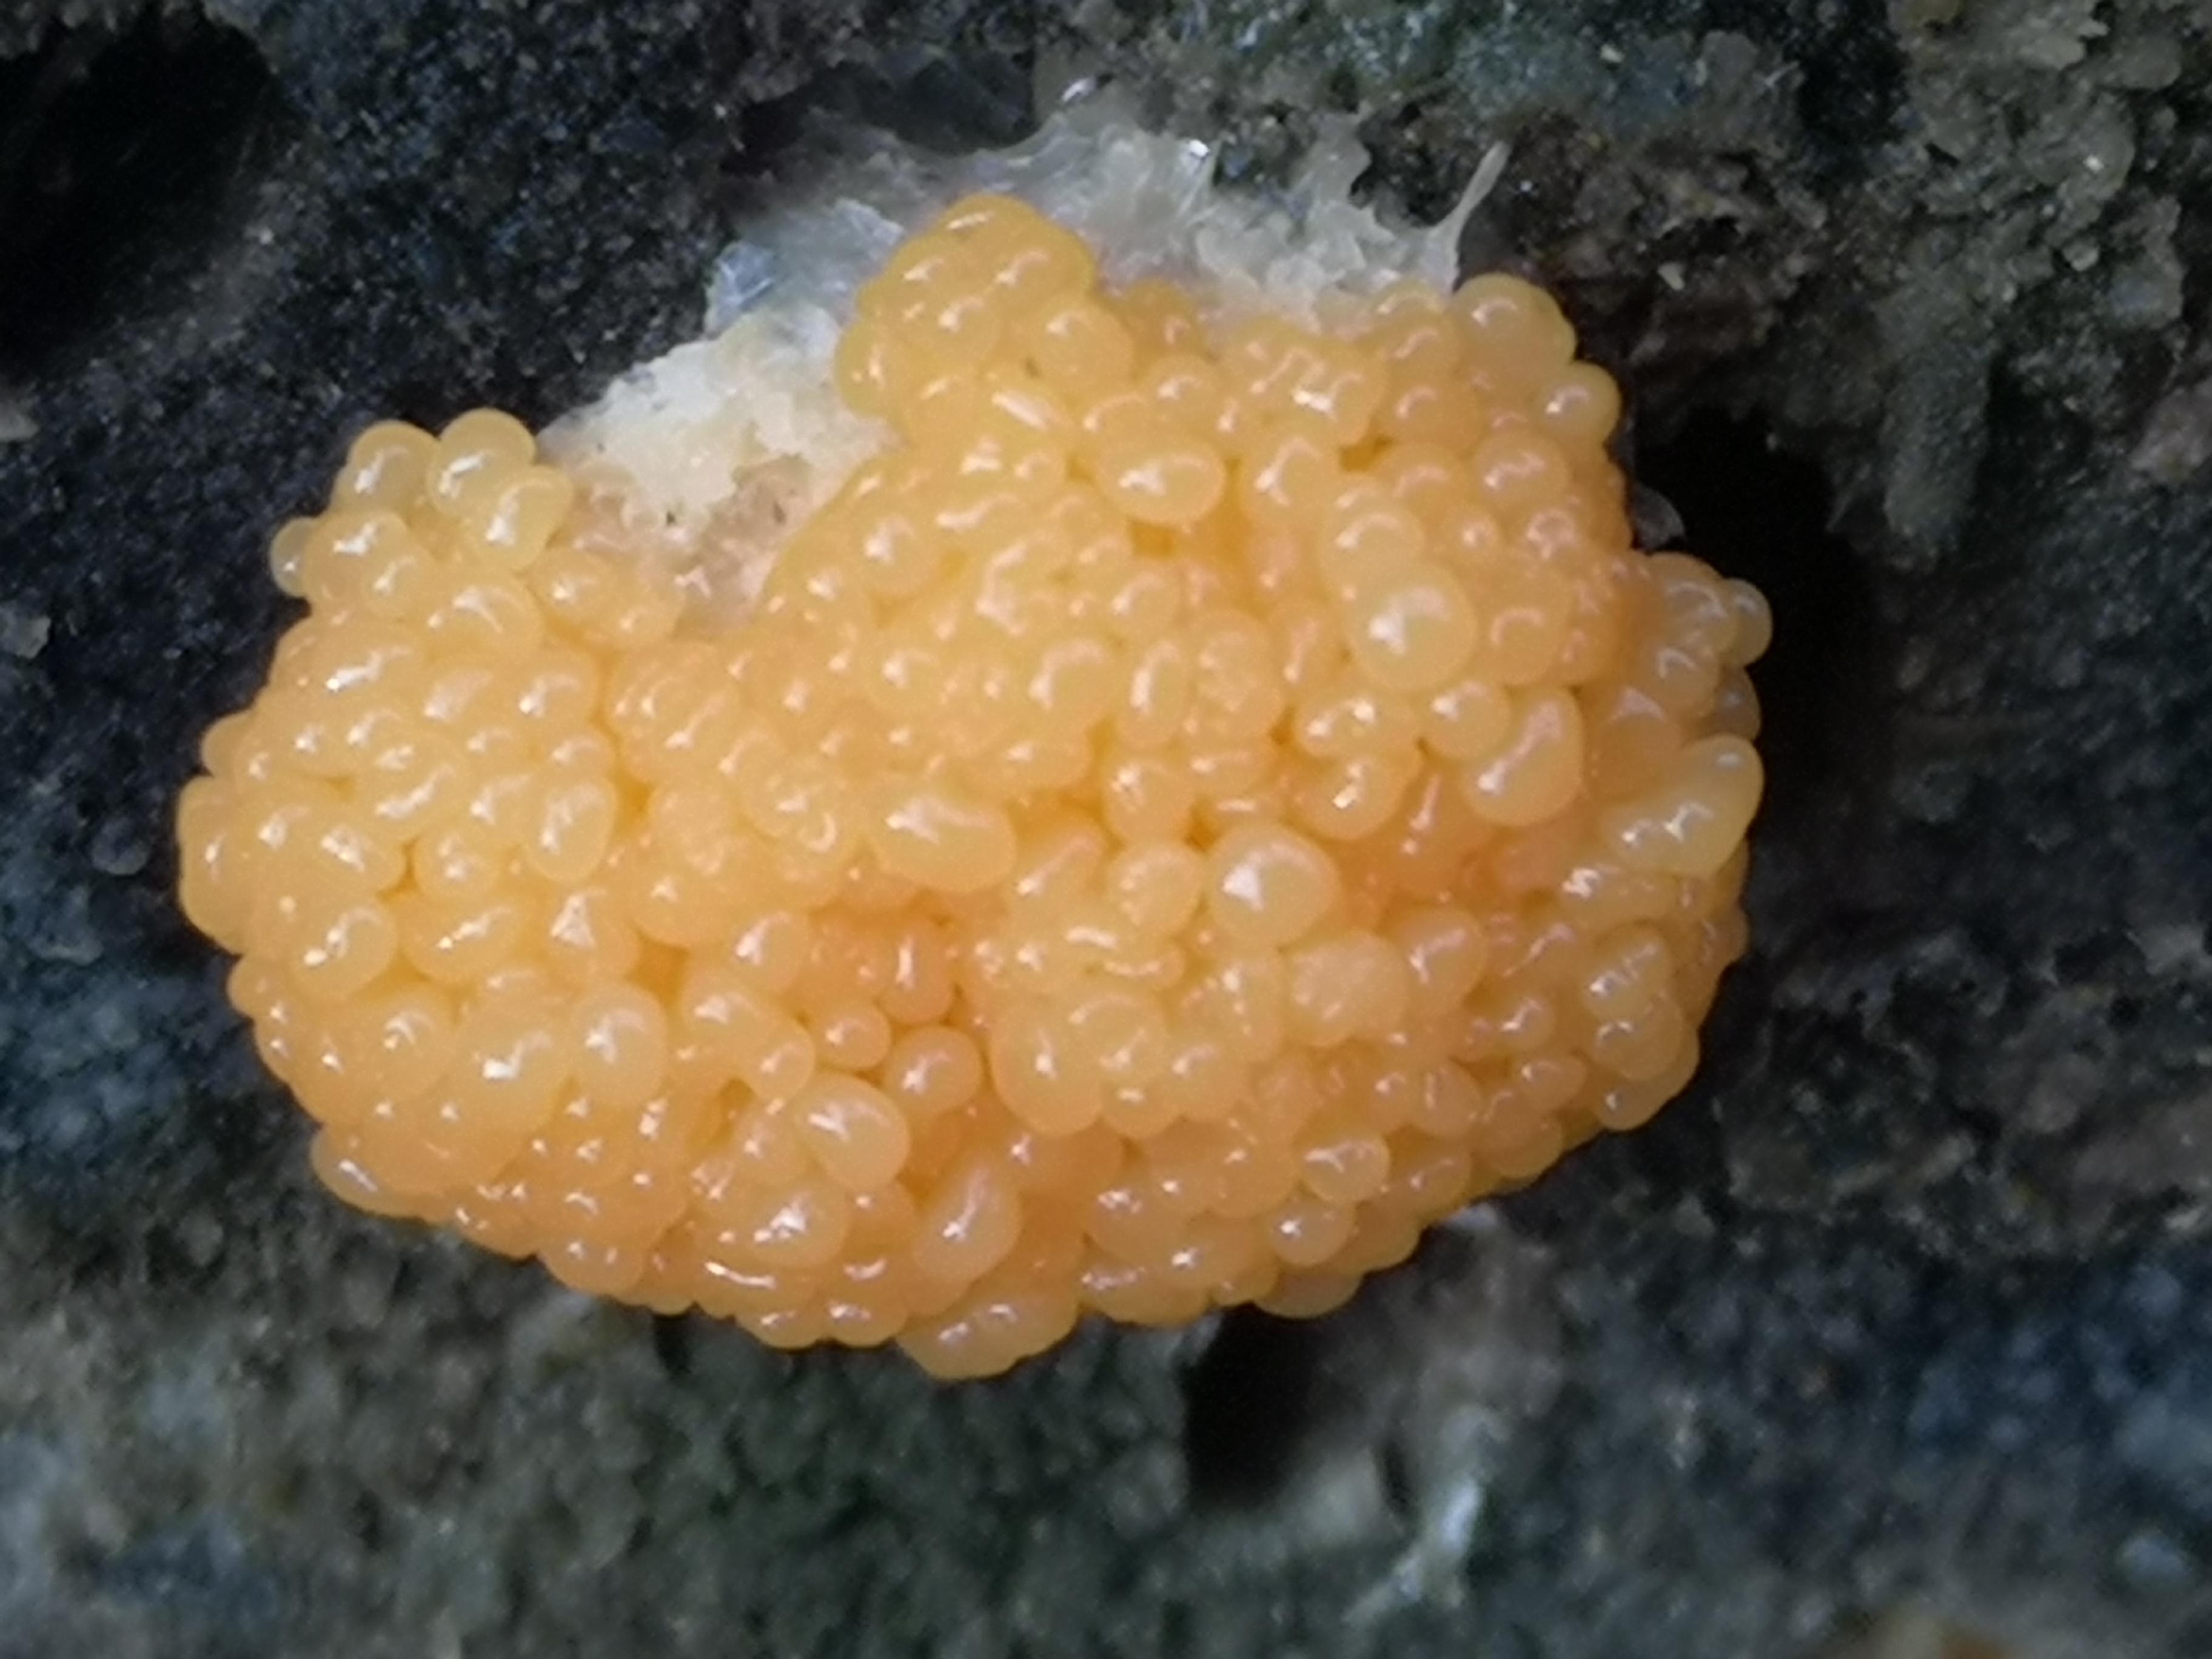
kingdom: Protozoa
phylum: Mycetozoa
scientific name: Mycetozoa
